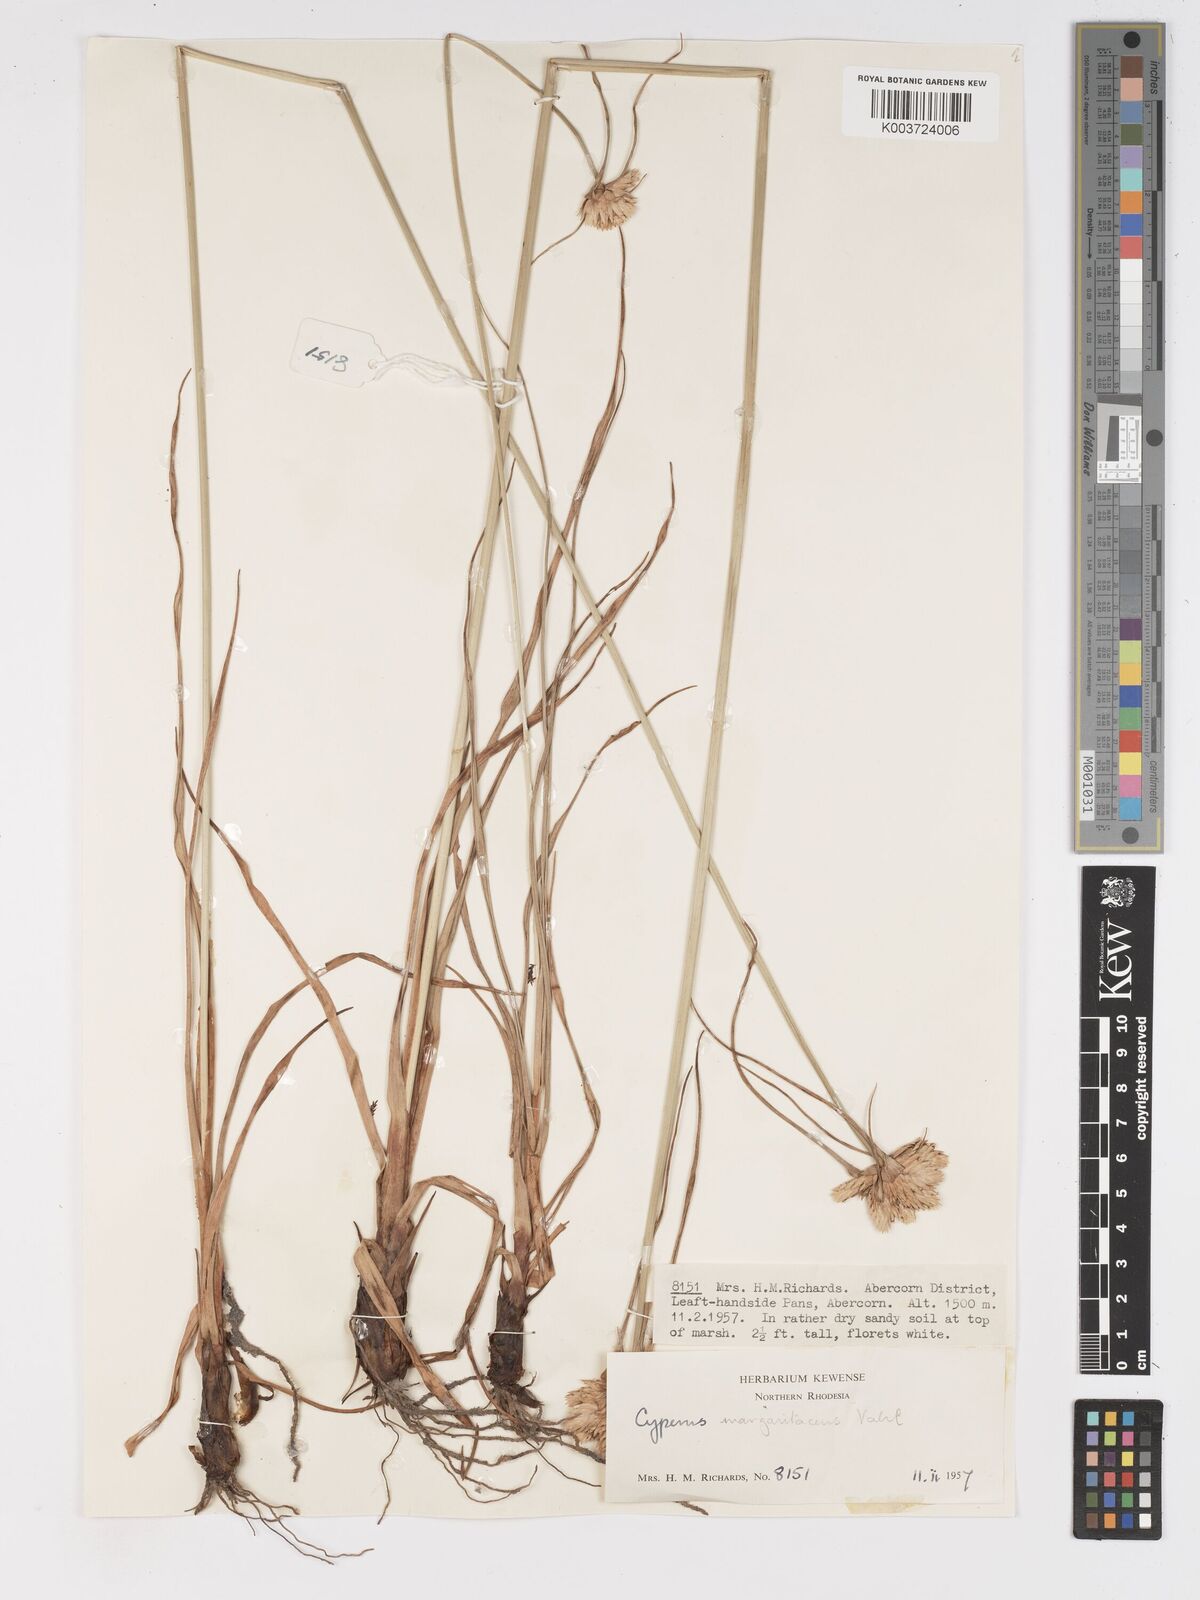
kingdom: Plantae
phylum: Tracheophyta
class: Liliopsida
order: Poales
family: Cyperaceae
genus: Cyperus
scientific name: Cyperus niveus
